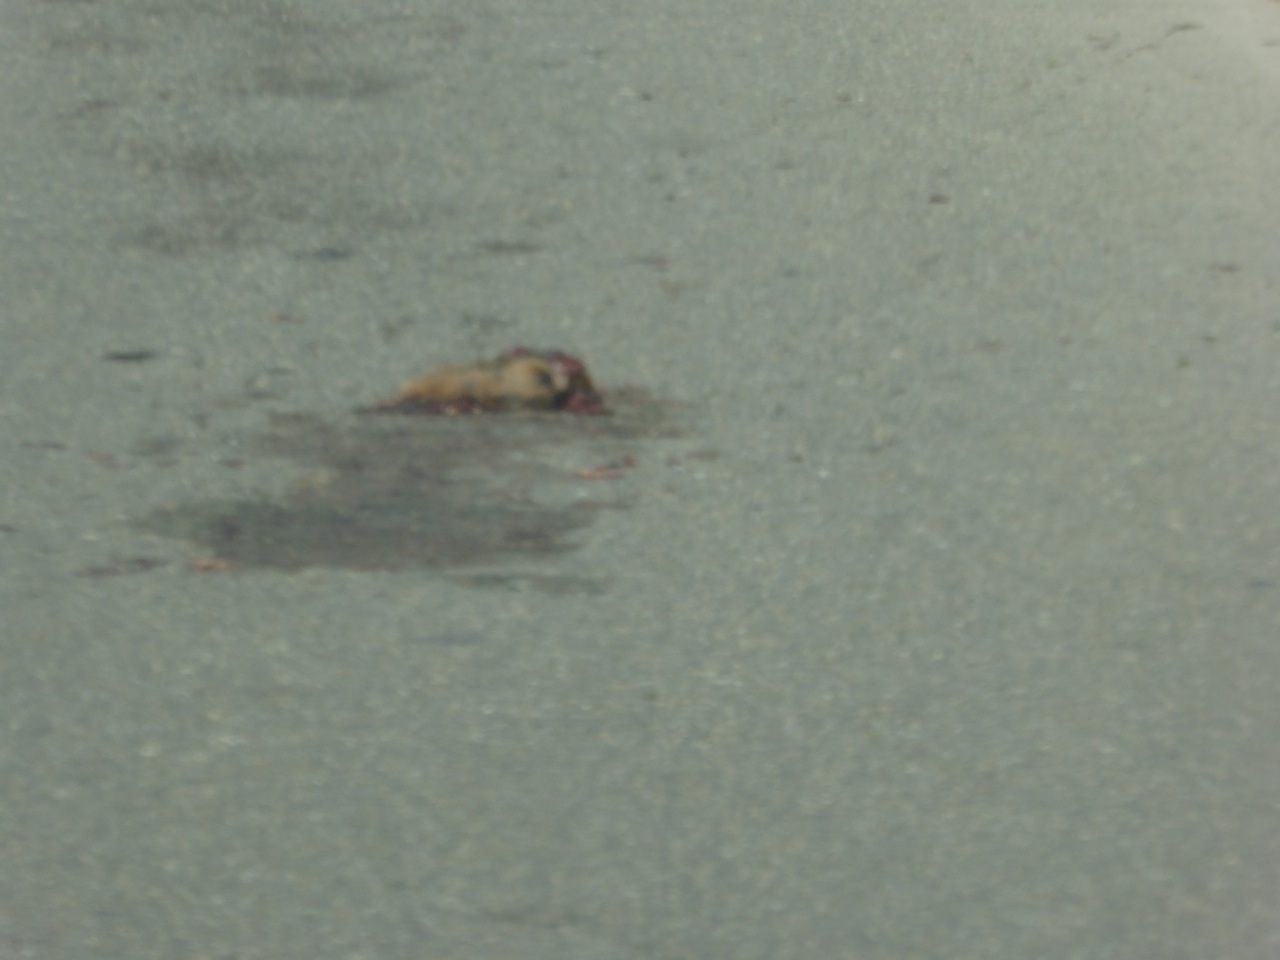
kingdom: Animalia
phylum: Chordata
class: Mammalia
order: Carnivora
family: Canidae
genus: Canis
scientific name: Canis lupus
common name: Gray wolf
